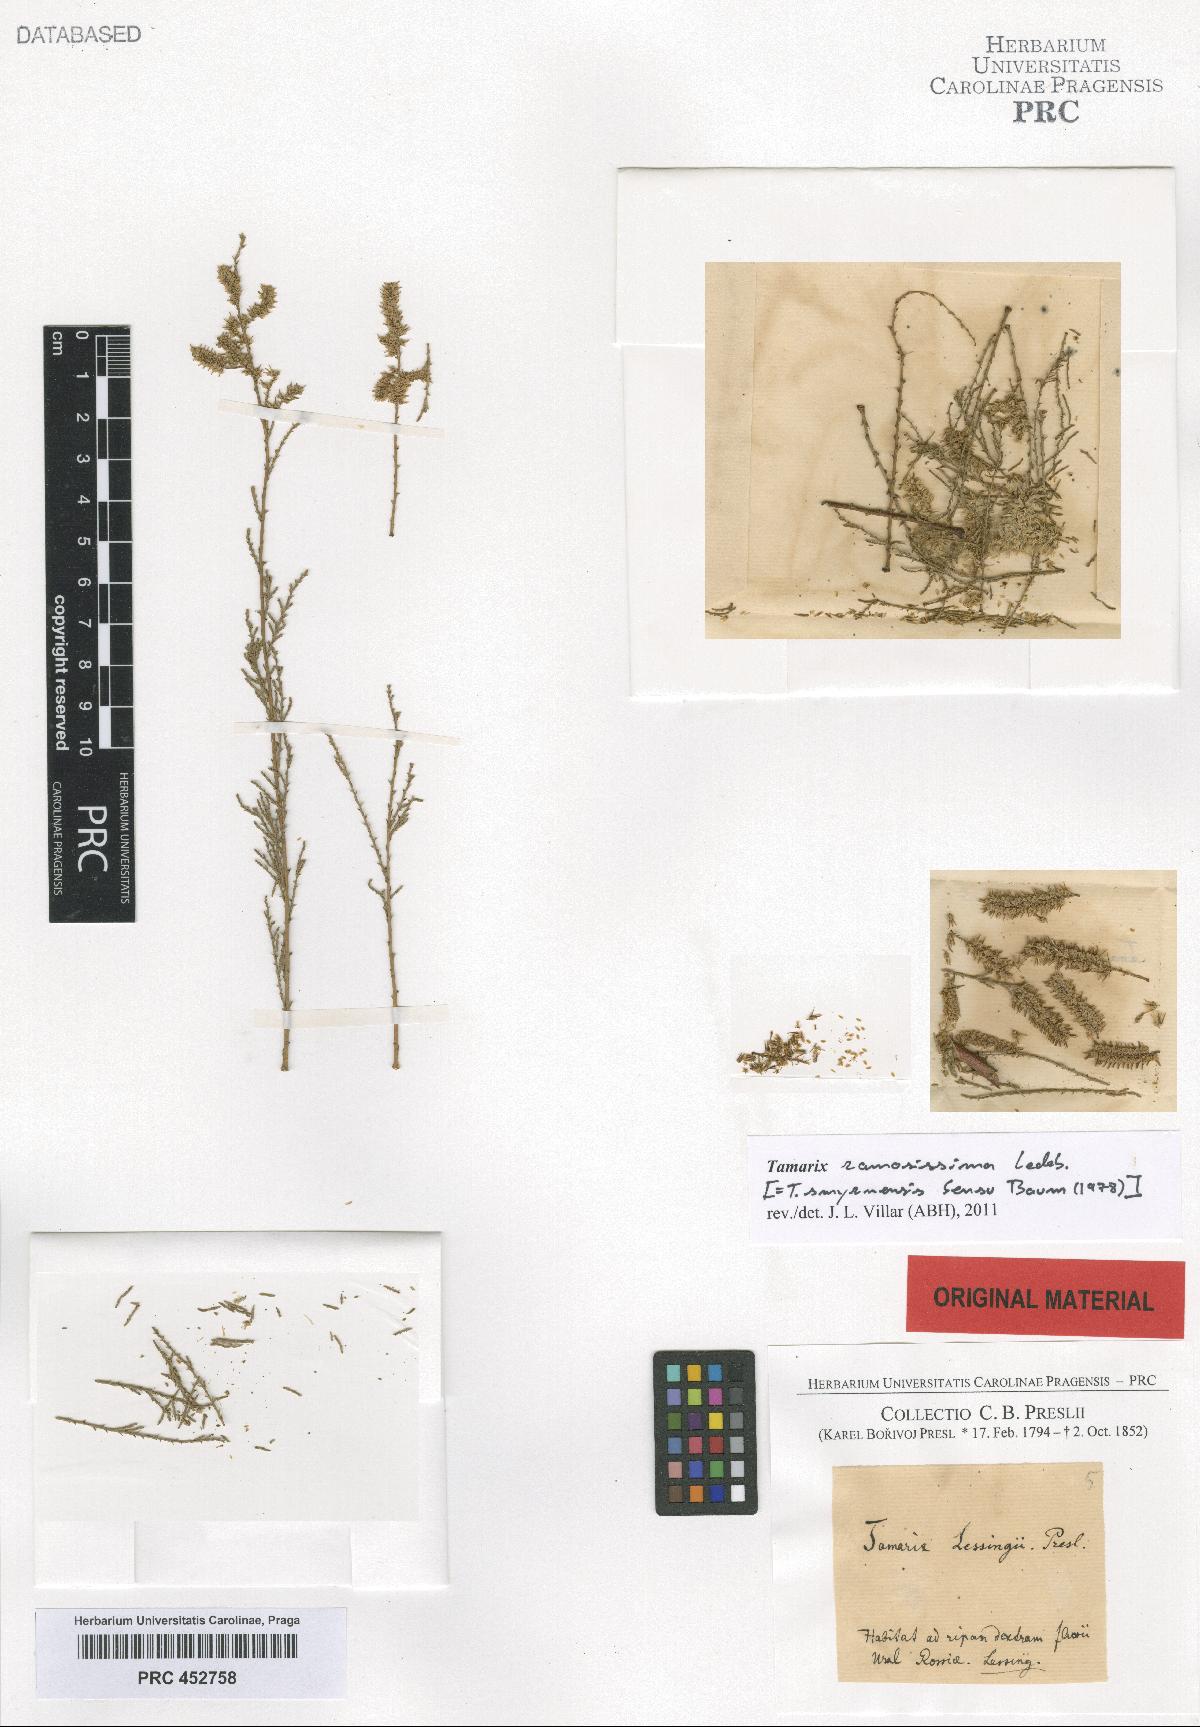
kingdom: Plantae
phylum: Tracheophyta
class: Magnoliopsida
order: Caryophyllales
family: Tamaricaceae
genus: Tamarix
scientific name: Tamarix smyrnensis
